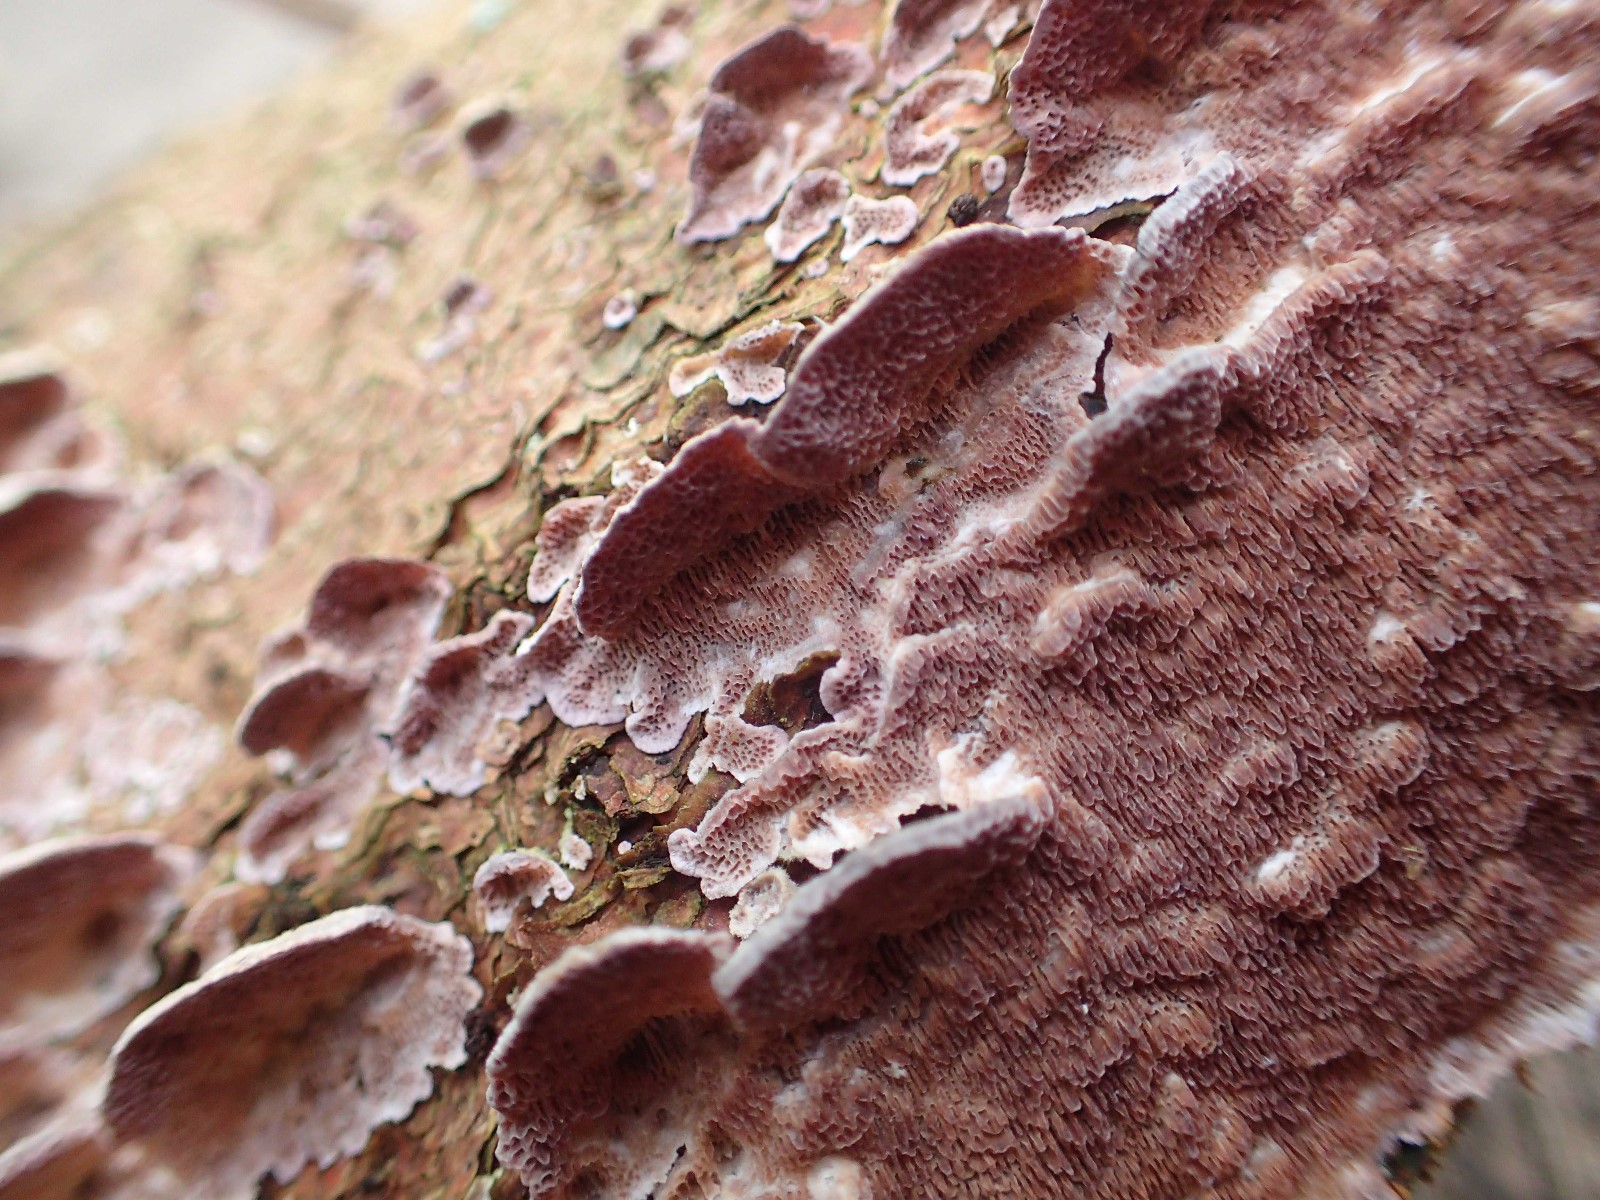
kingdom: Fungi
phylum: Basidiomycota
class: Agaricomycetes
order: Hymenochaetales
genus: Trichaptum
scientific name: Trichaptum fuscoviolaceum
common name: tandet violporesvamp
